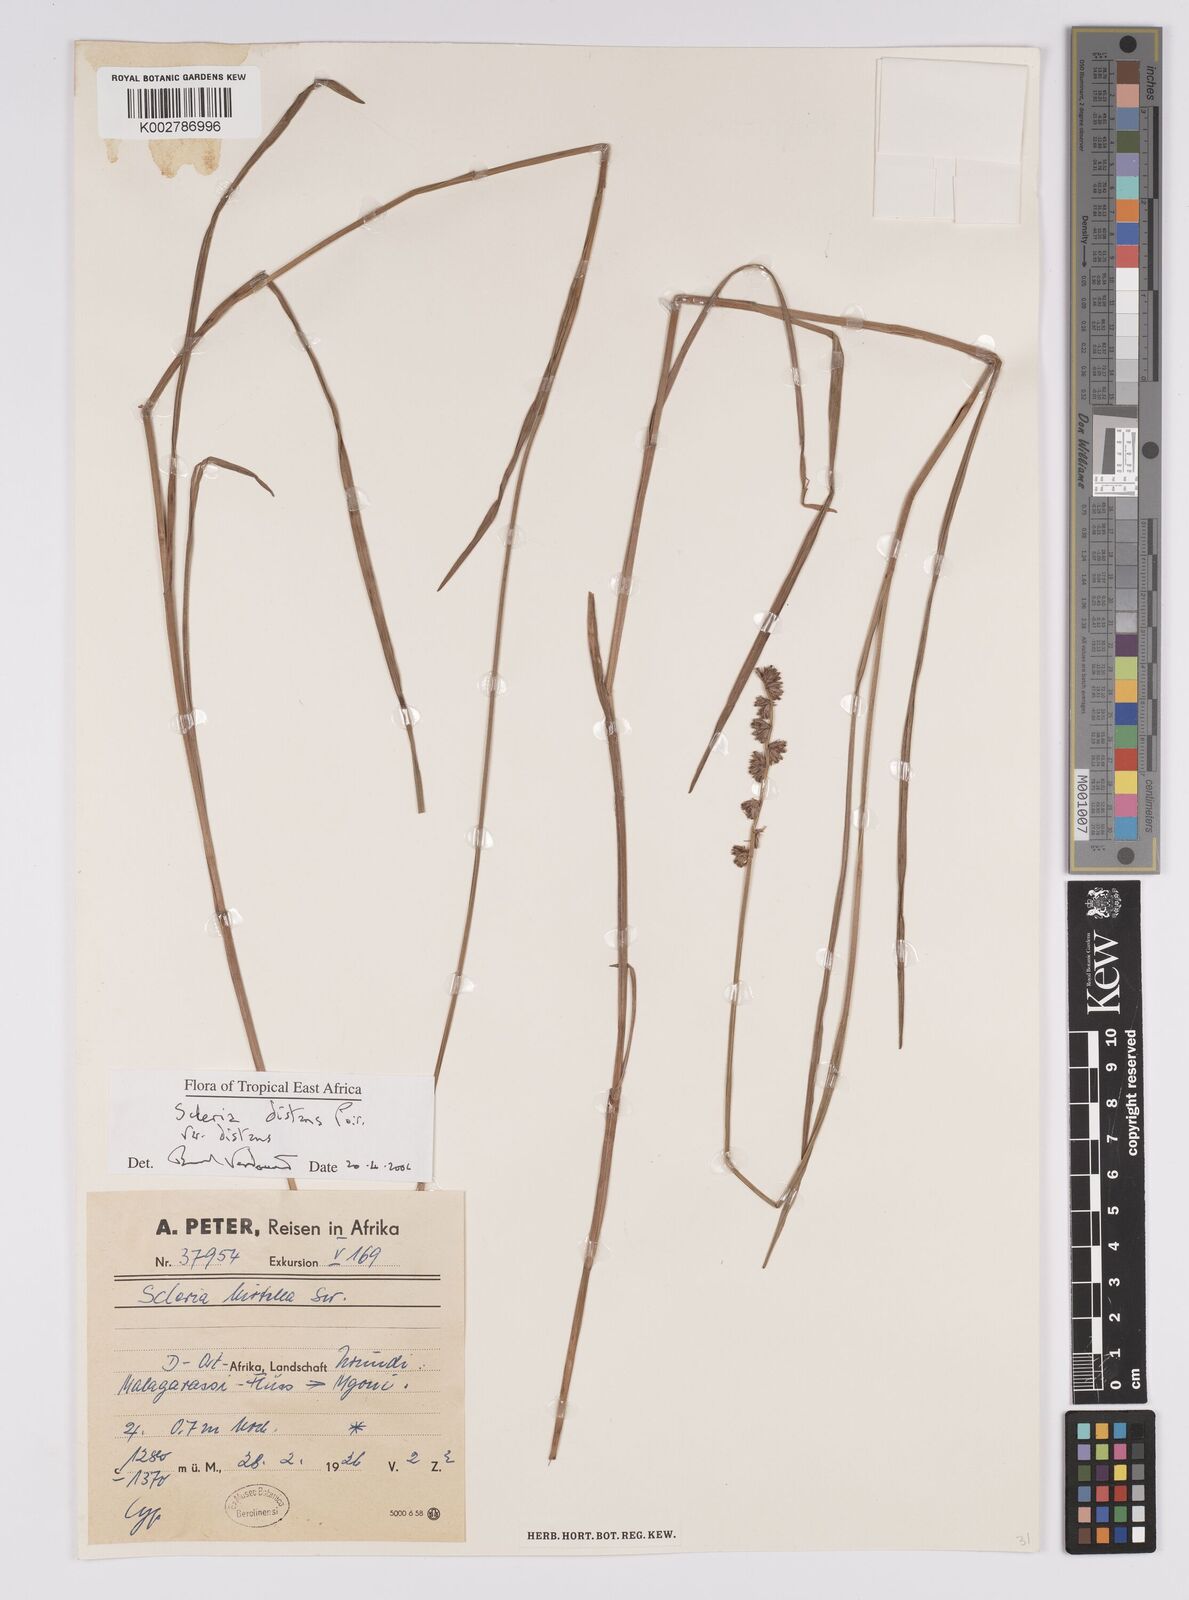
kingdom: Plantae
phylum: Tracheophyta
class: Liliopsida
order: Poales
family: Cyperaceae
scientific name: Cyperaceae
